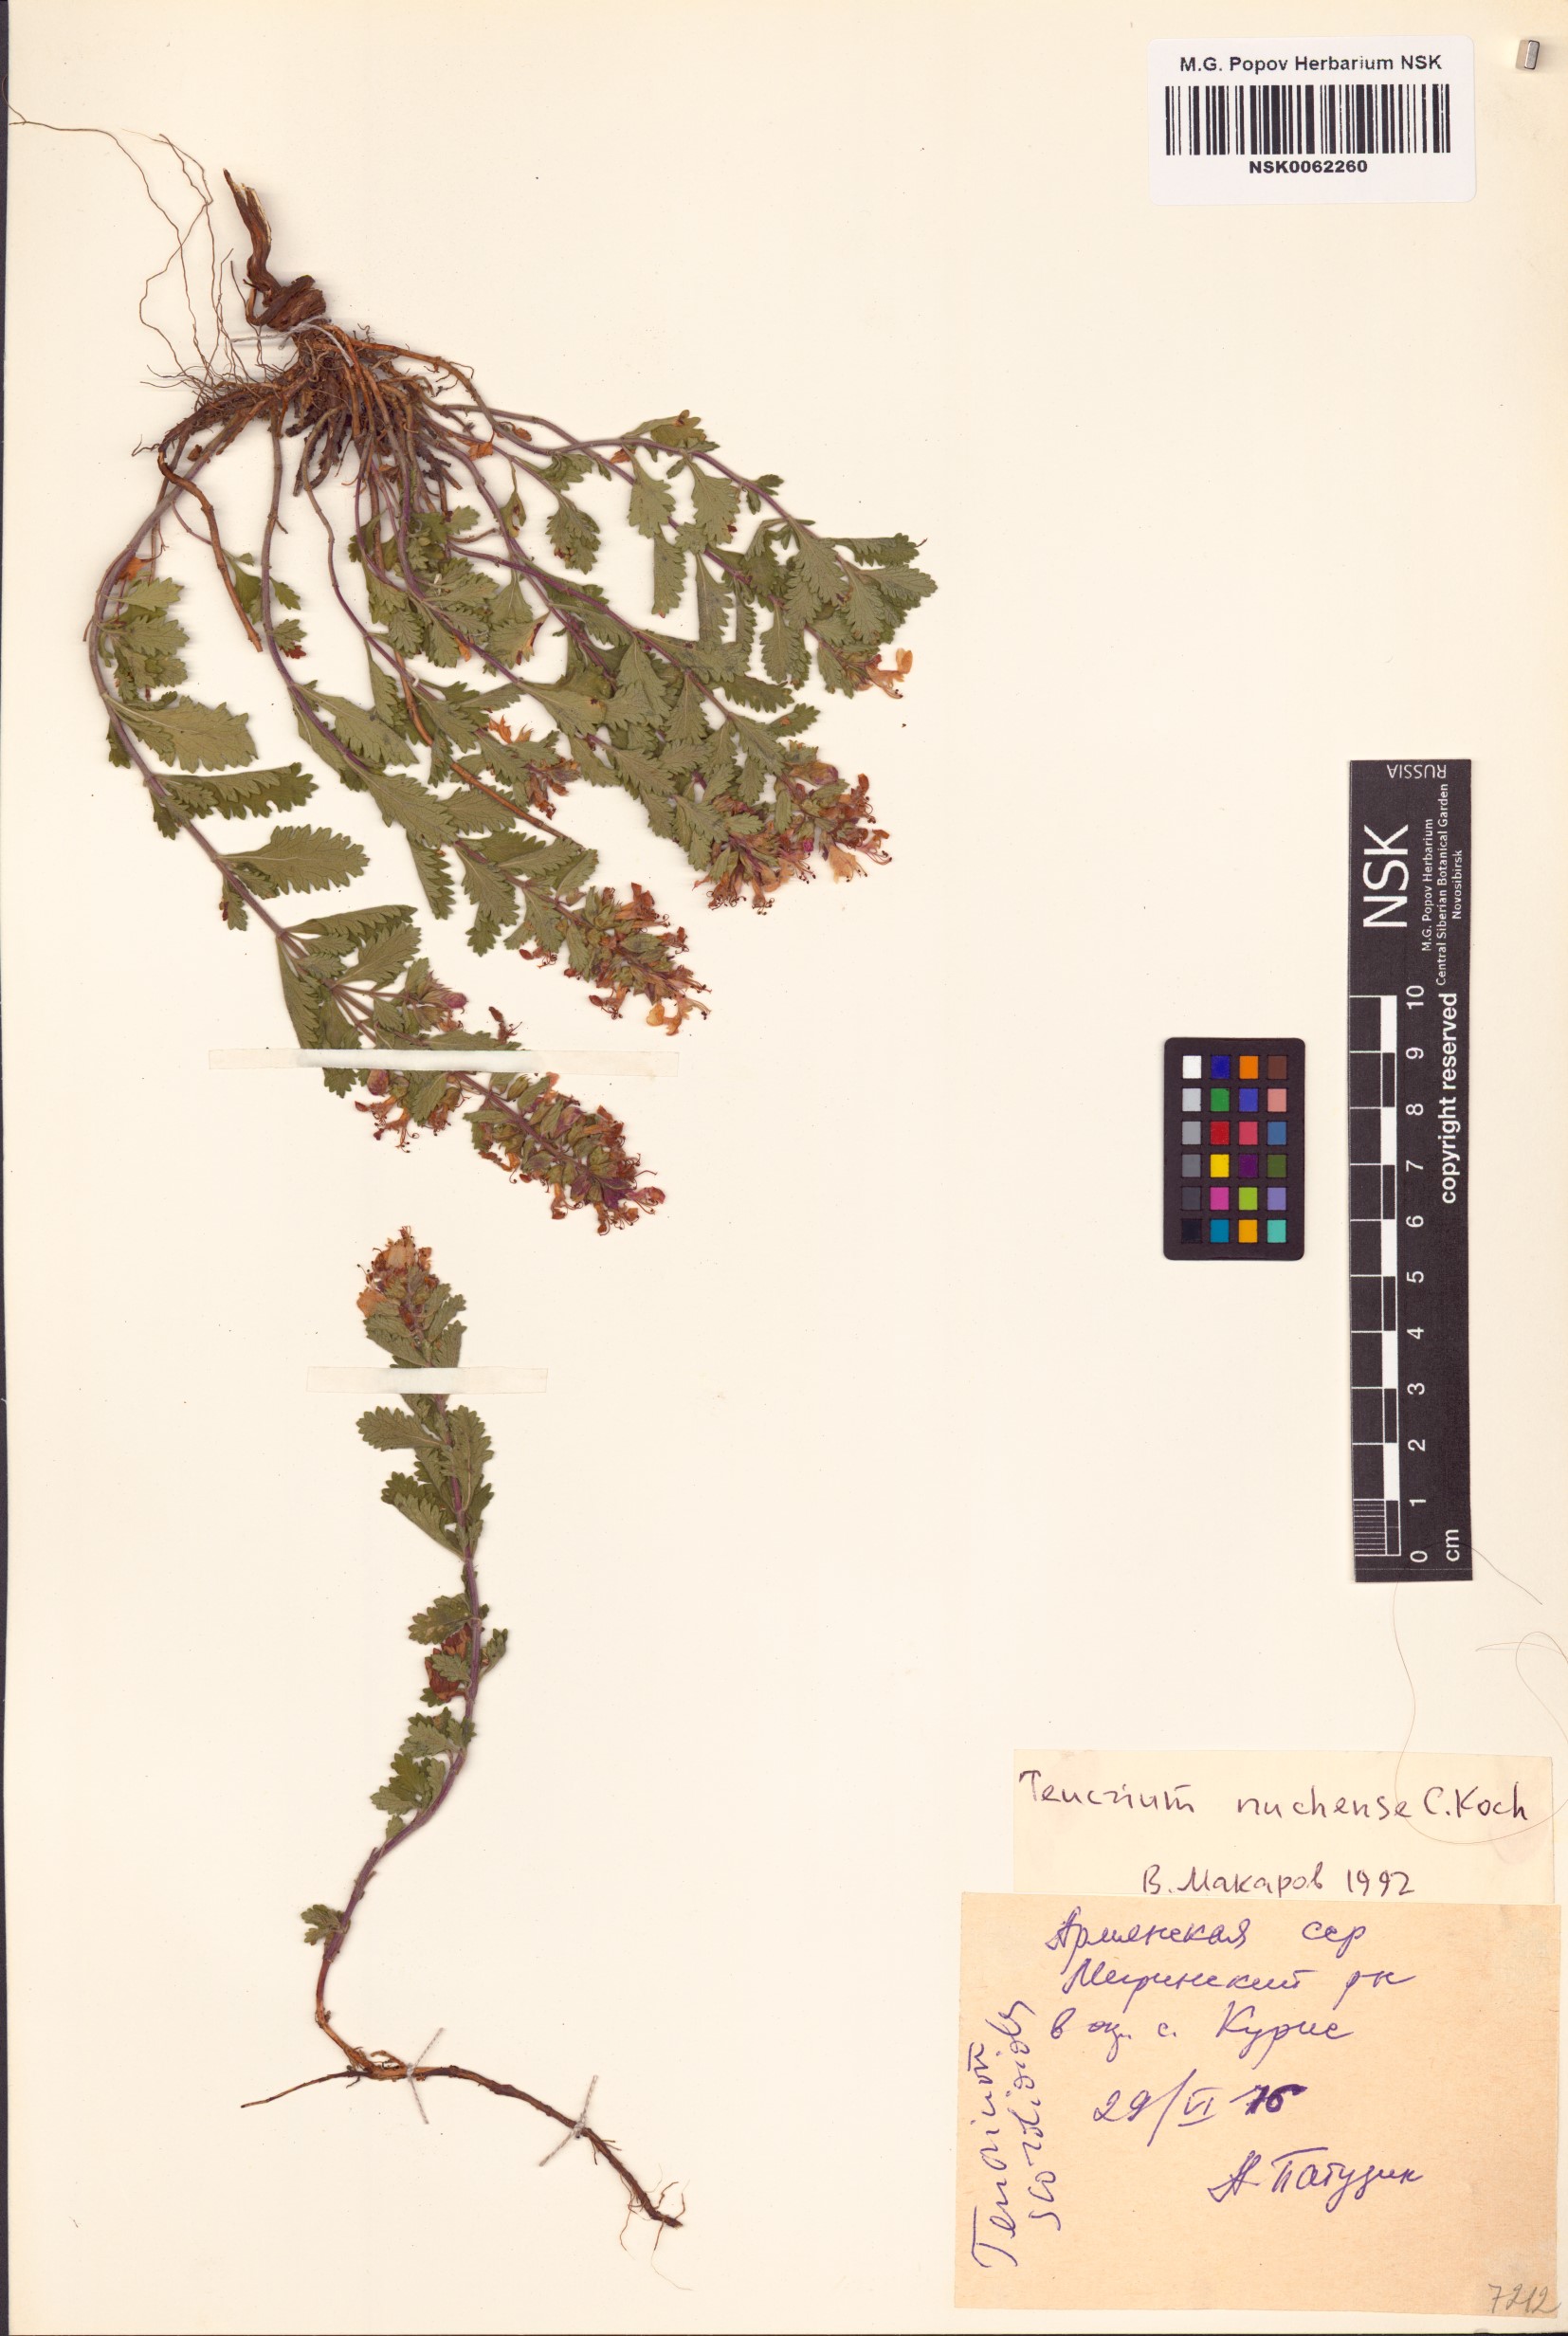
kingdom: Plantae
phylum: Tracheophyta
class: Magnoliopsida
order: Lamiales
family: Lamiaceae
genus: Teucrium
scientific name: Teucrium chamaedrys
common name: Wall germander
